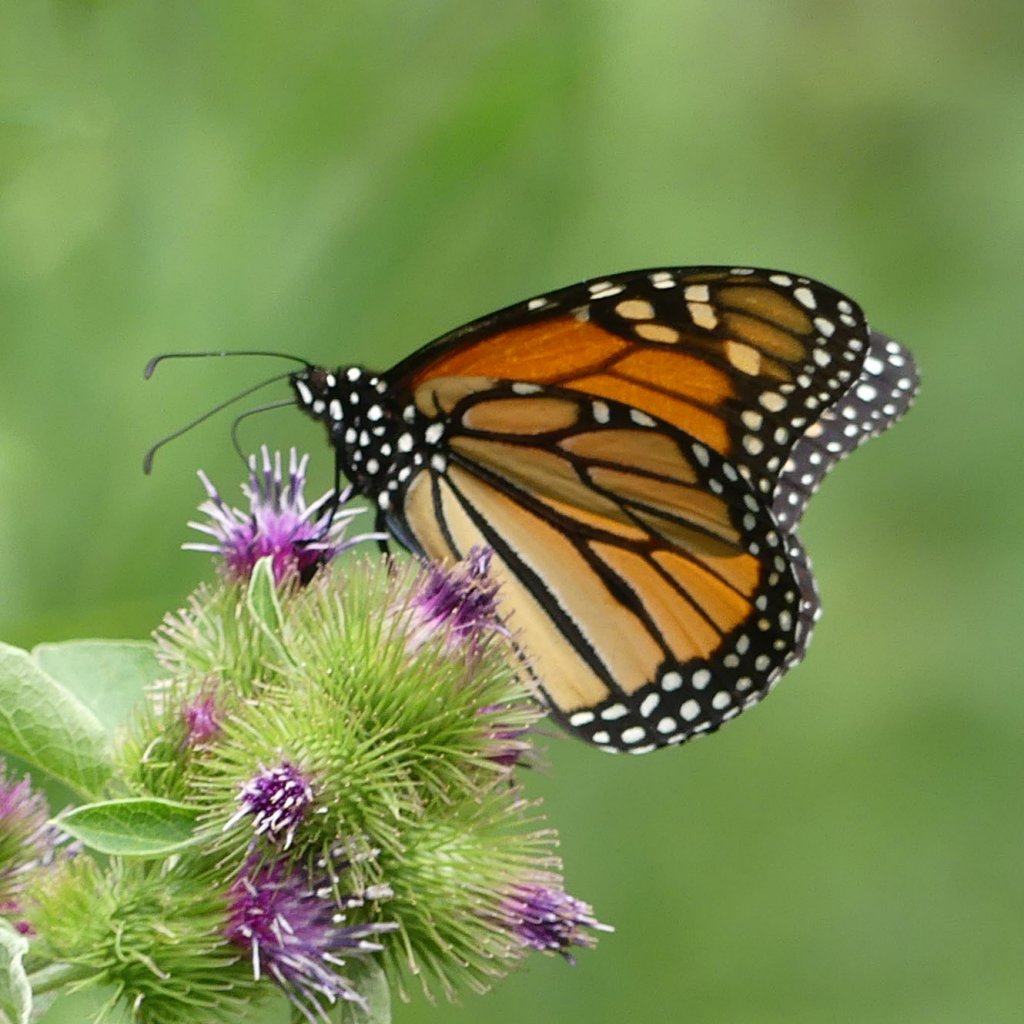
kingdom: Animalia
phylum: Arthropoda
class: Insecta
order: Lepidoptera
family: Nymphalidae
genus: Danaus
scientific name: Danaus plexippus
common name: Monarch
